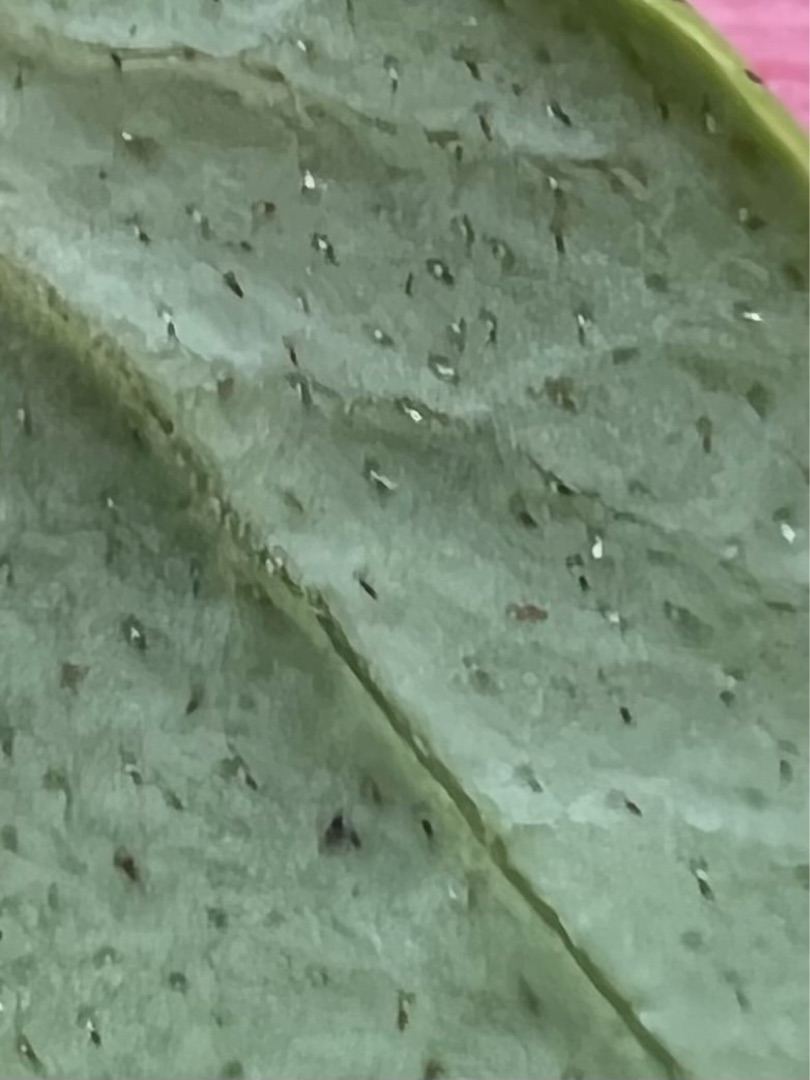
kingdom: Plantae
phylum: Tracheophyta
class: Magnoliopsida
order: Ericales
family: Ericaceae
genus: Vaccinium
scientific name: Vaccinium vitis-idaea
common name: Tyttebær
